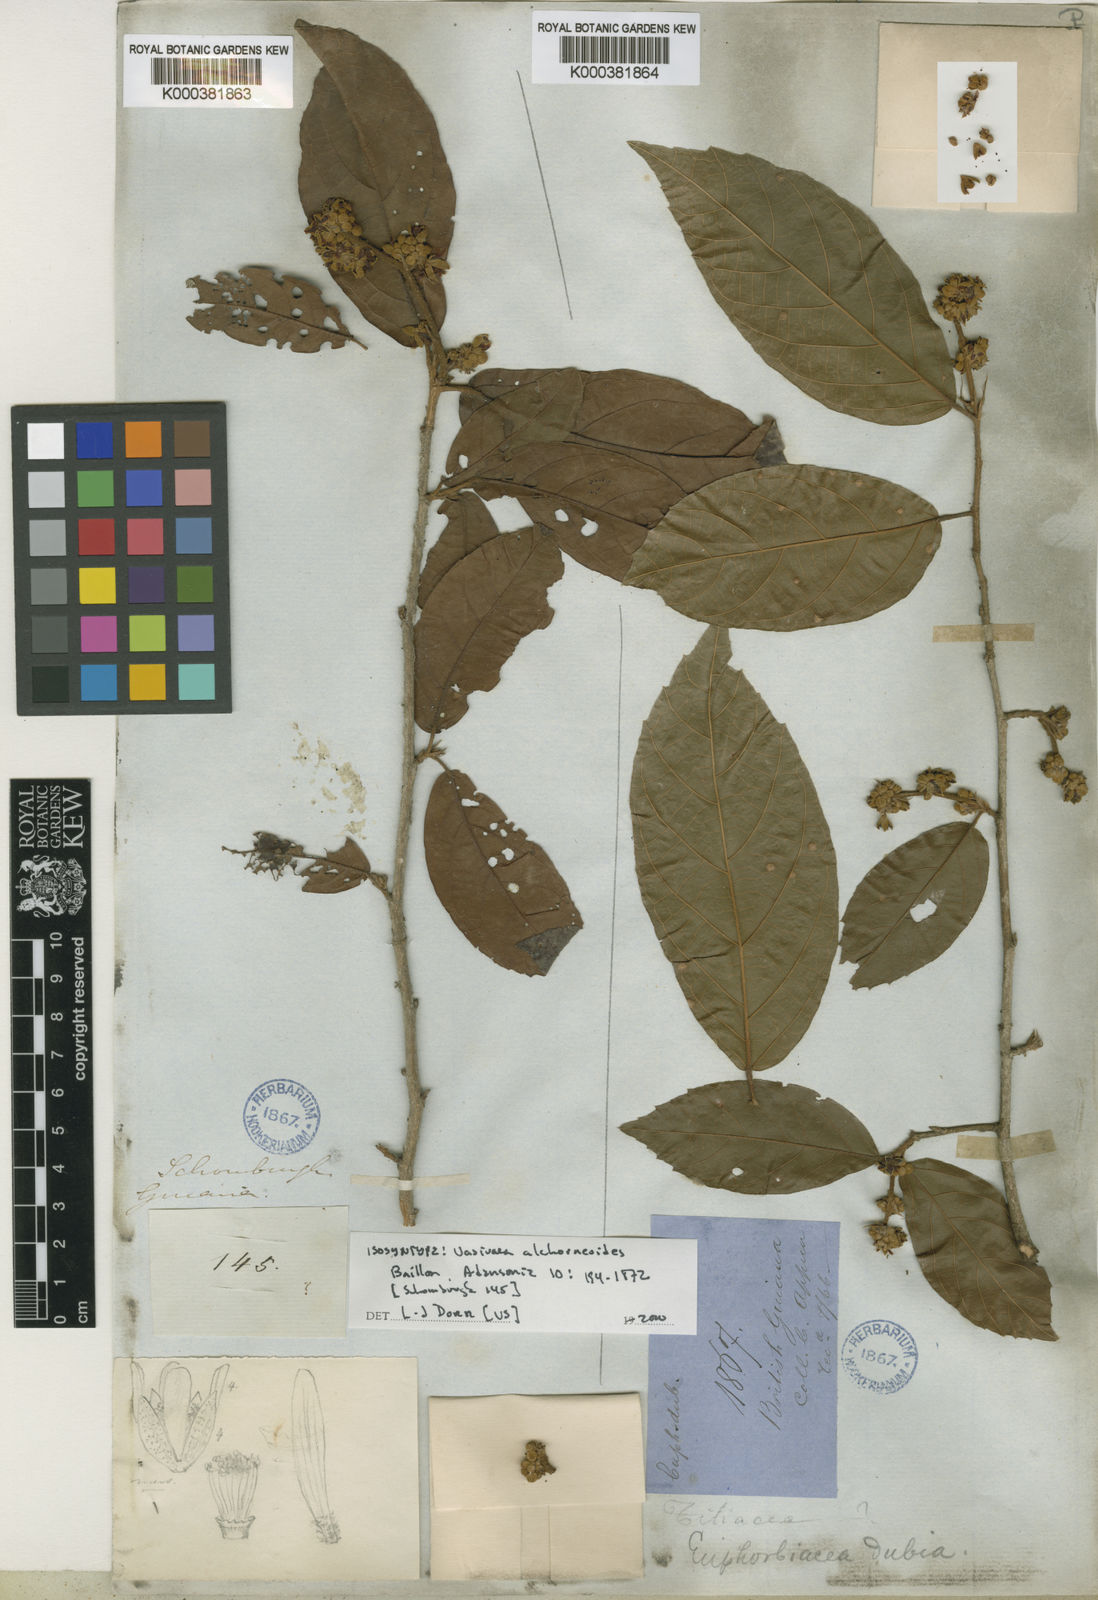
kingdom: Plantae
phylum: Tracheophyta
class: Magnoliopsida
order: Malvales
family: Malvaceae
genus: Vasivaea
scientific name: Vasivaea alchorneoides
